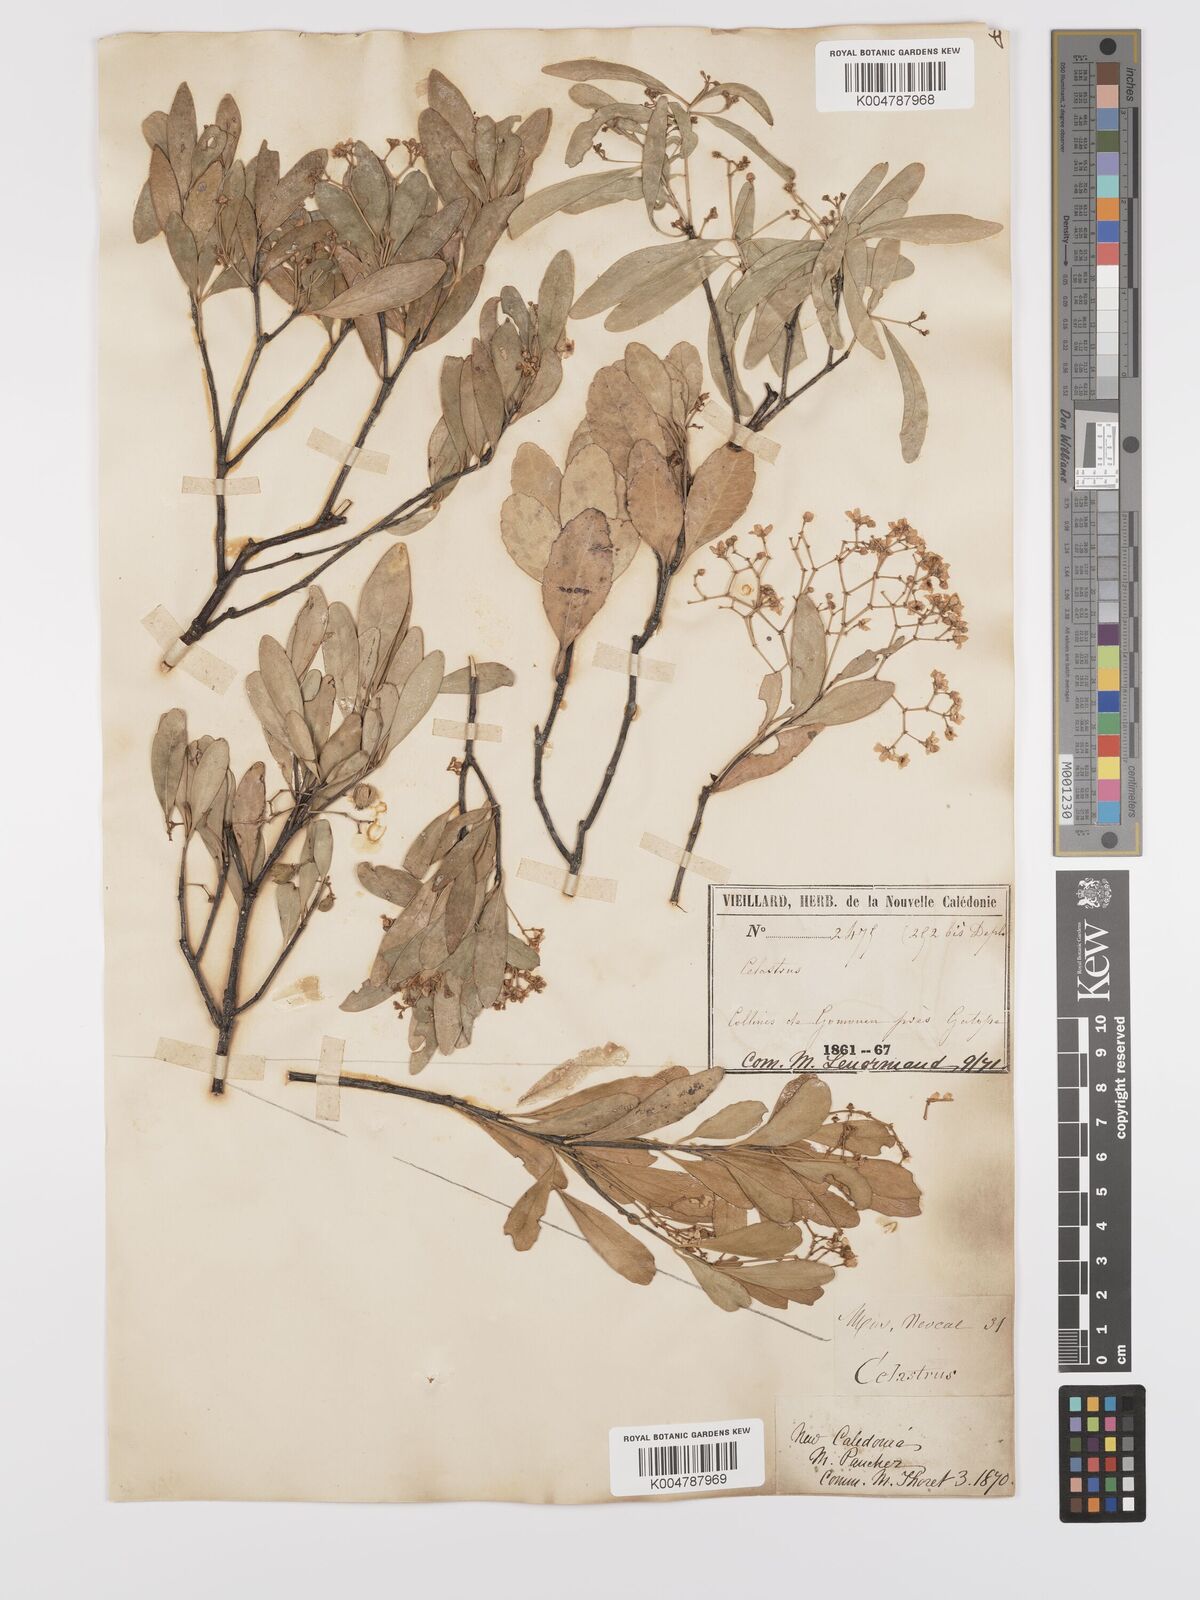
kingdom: Plantae
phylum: Tracheophyta
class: Magnoliopsida
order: Celastrales
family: Celastraceae
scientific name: Celastraceae
